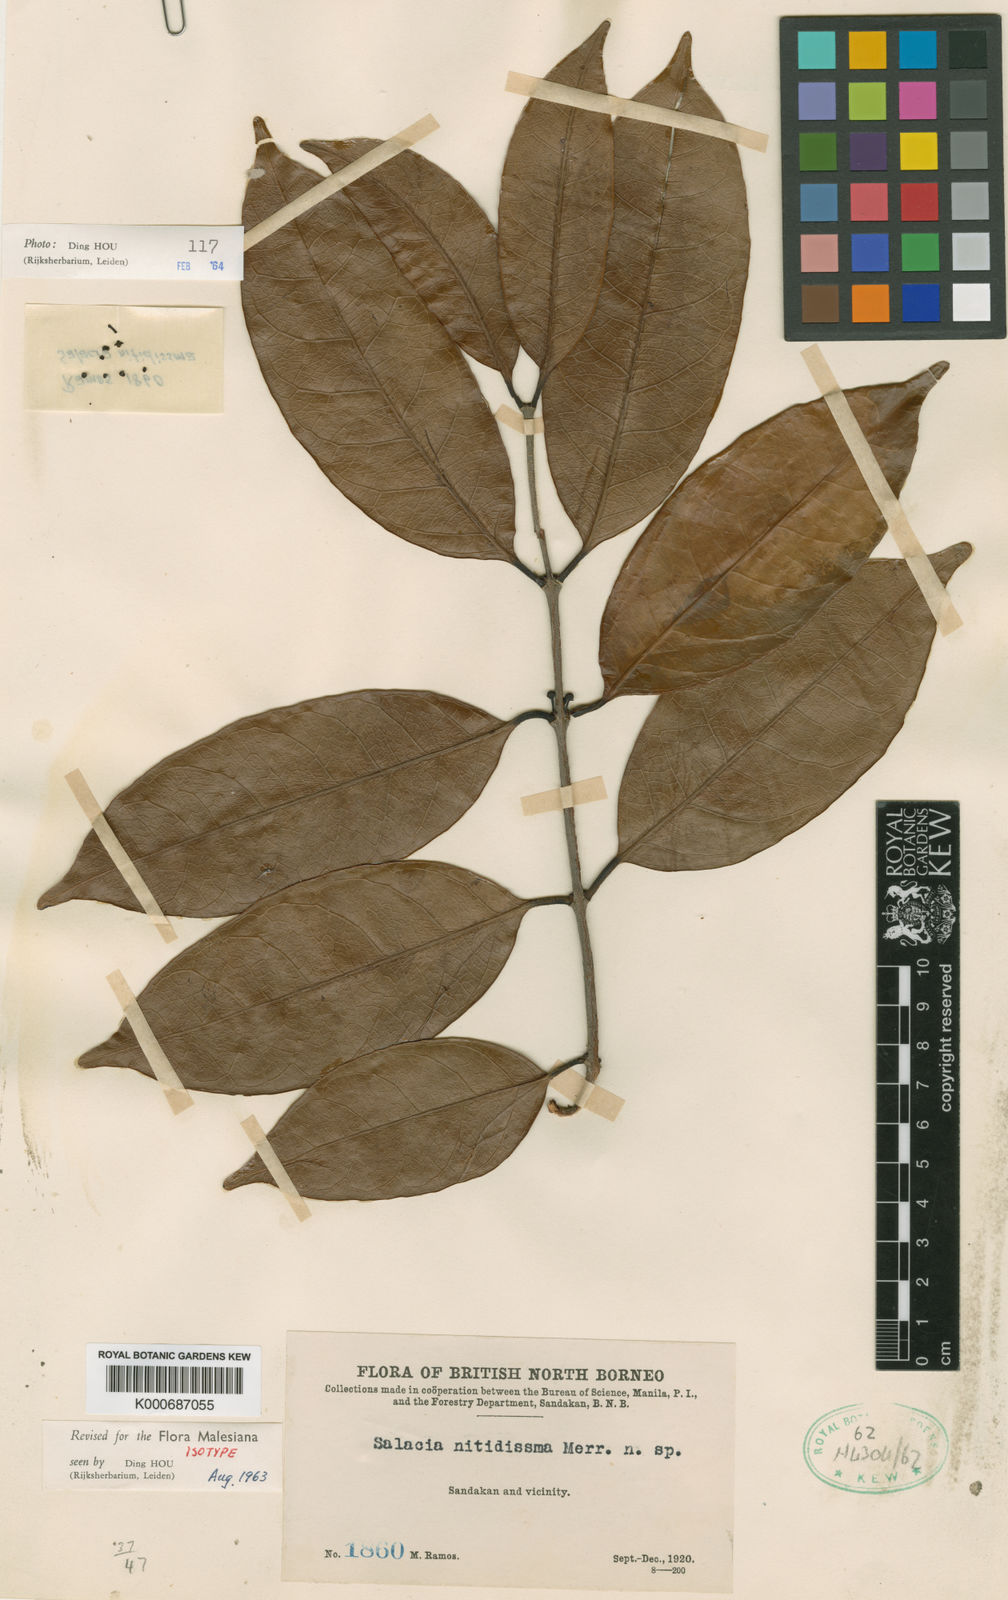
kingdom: Plantae
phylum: Tracheophyta
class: Magnoliopsida
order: Celastrales
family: Celastraceae
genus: Salacia
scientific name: Salacia nitidissima
